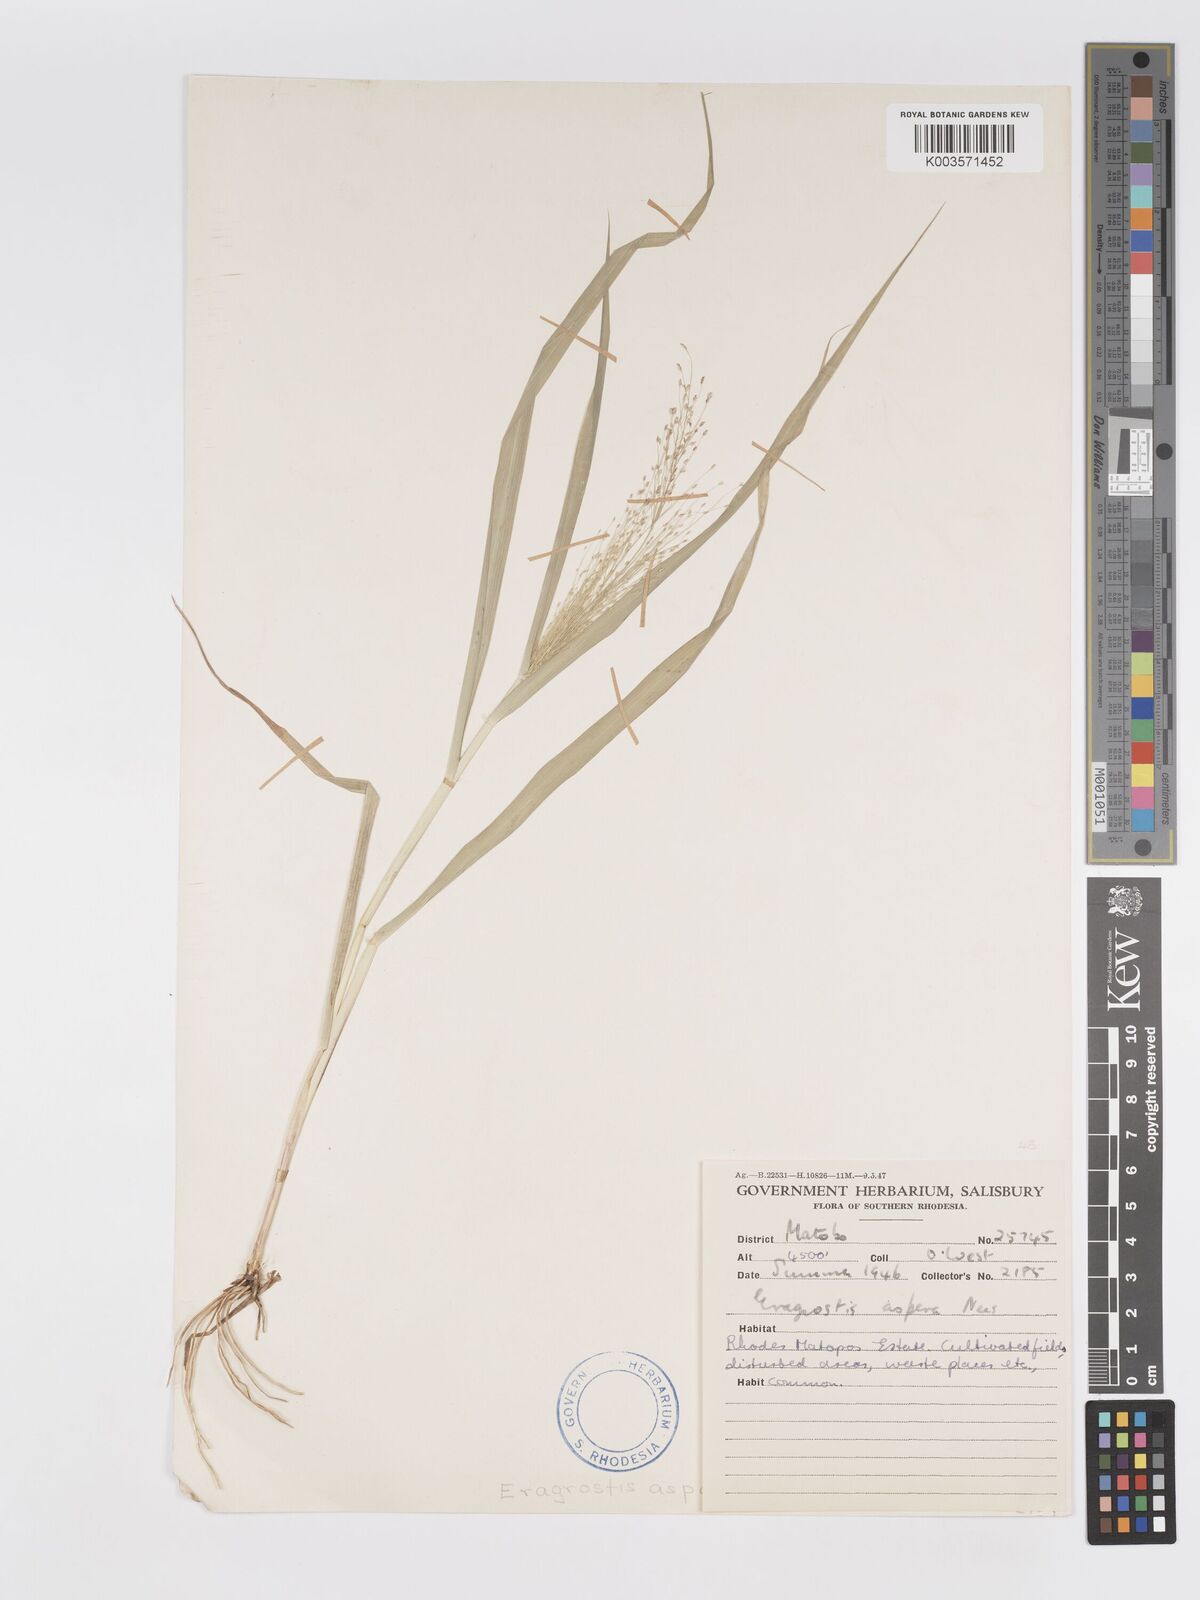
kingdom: Plantae
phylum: Tracheophyta
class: Liliopsida
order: Poales
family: Poaceae
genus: Eragrostis
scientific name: Eragrostis aspera
